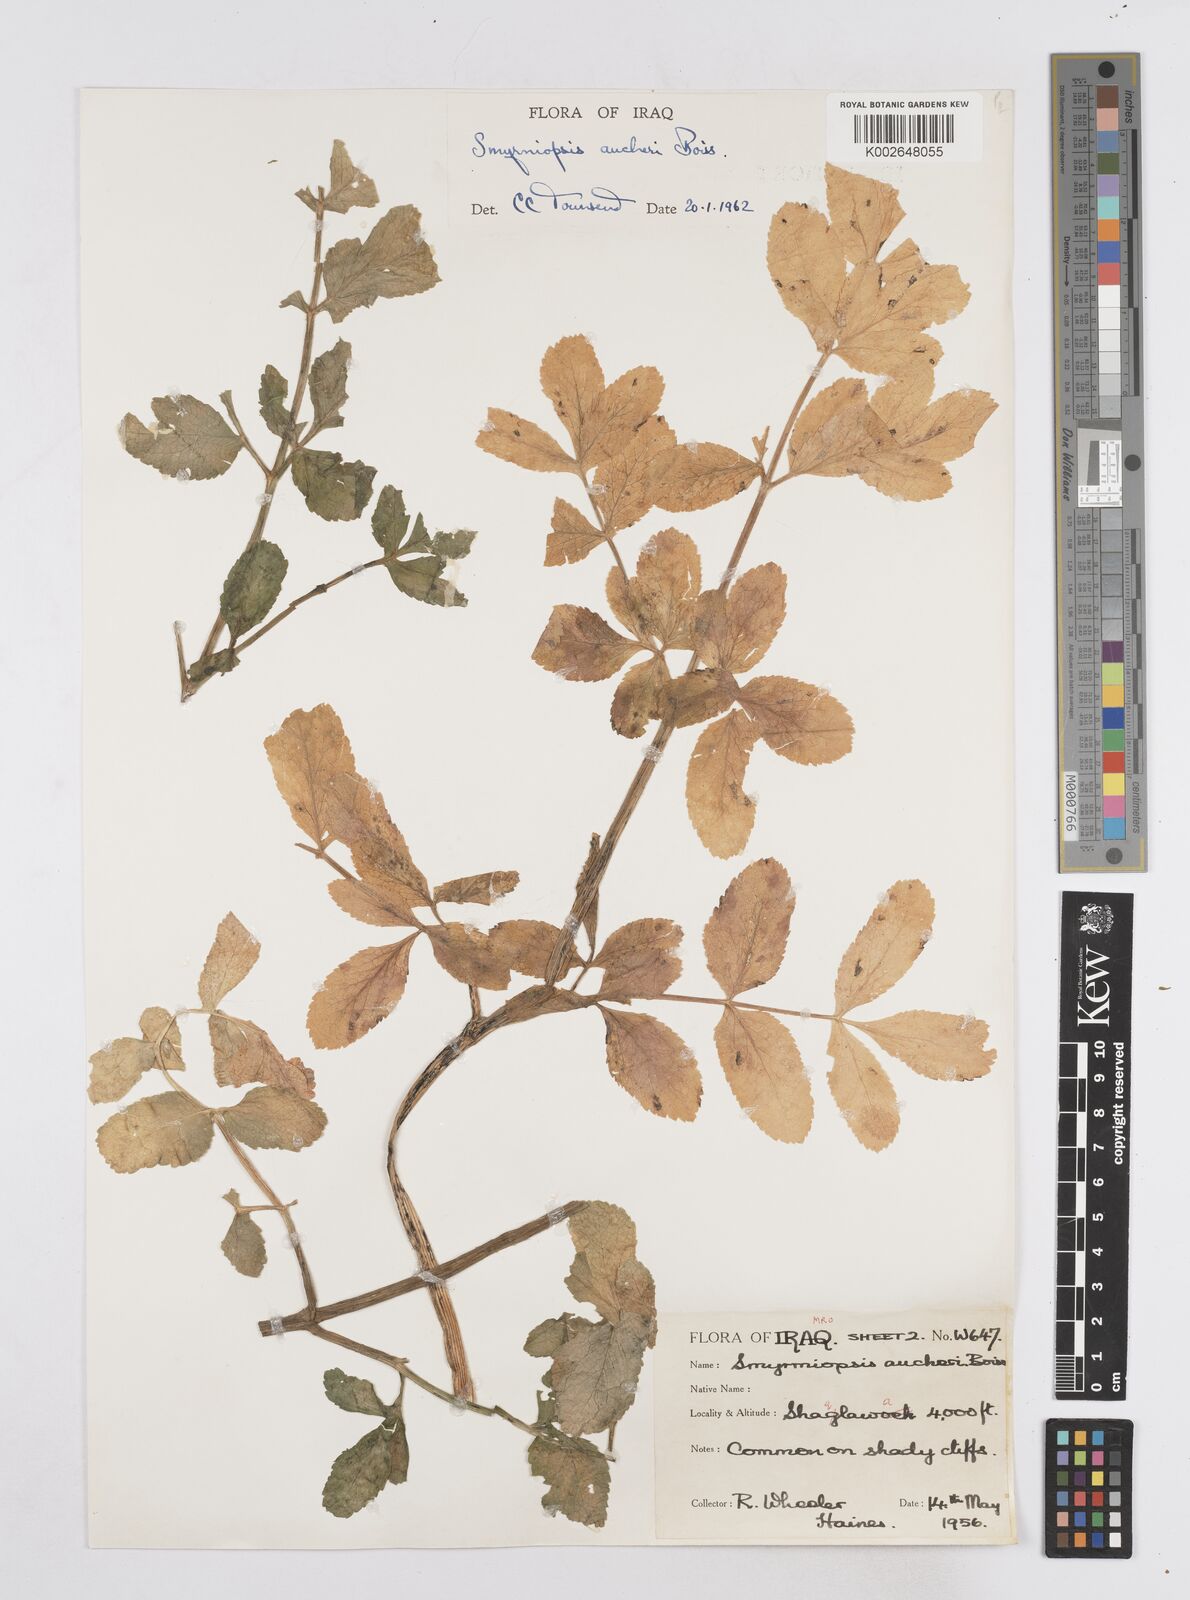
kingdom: Plantae
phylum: Tracheophyta
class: Magnoliopsida
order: Apiales
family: Apiaceae
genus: Smyrniopsis
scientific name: Smyrniopsis aucheri
